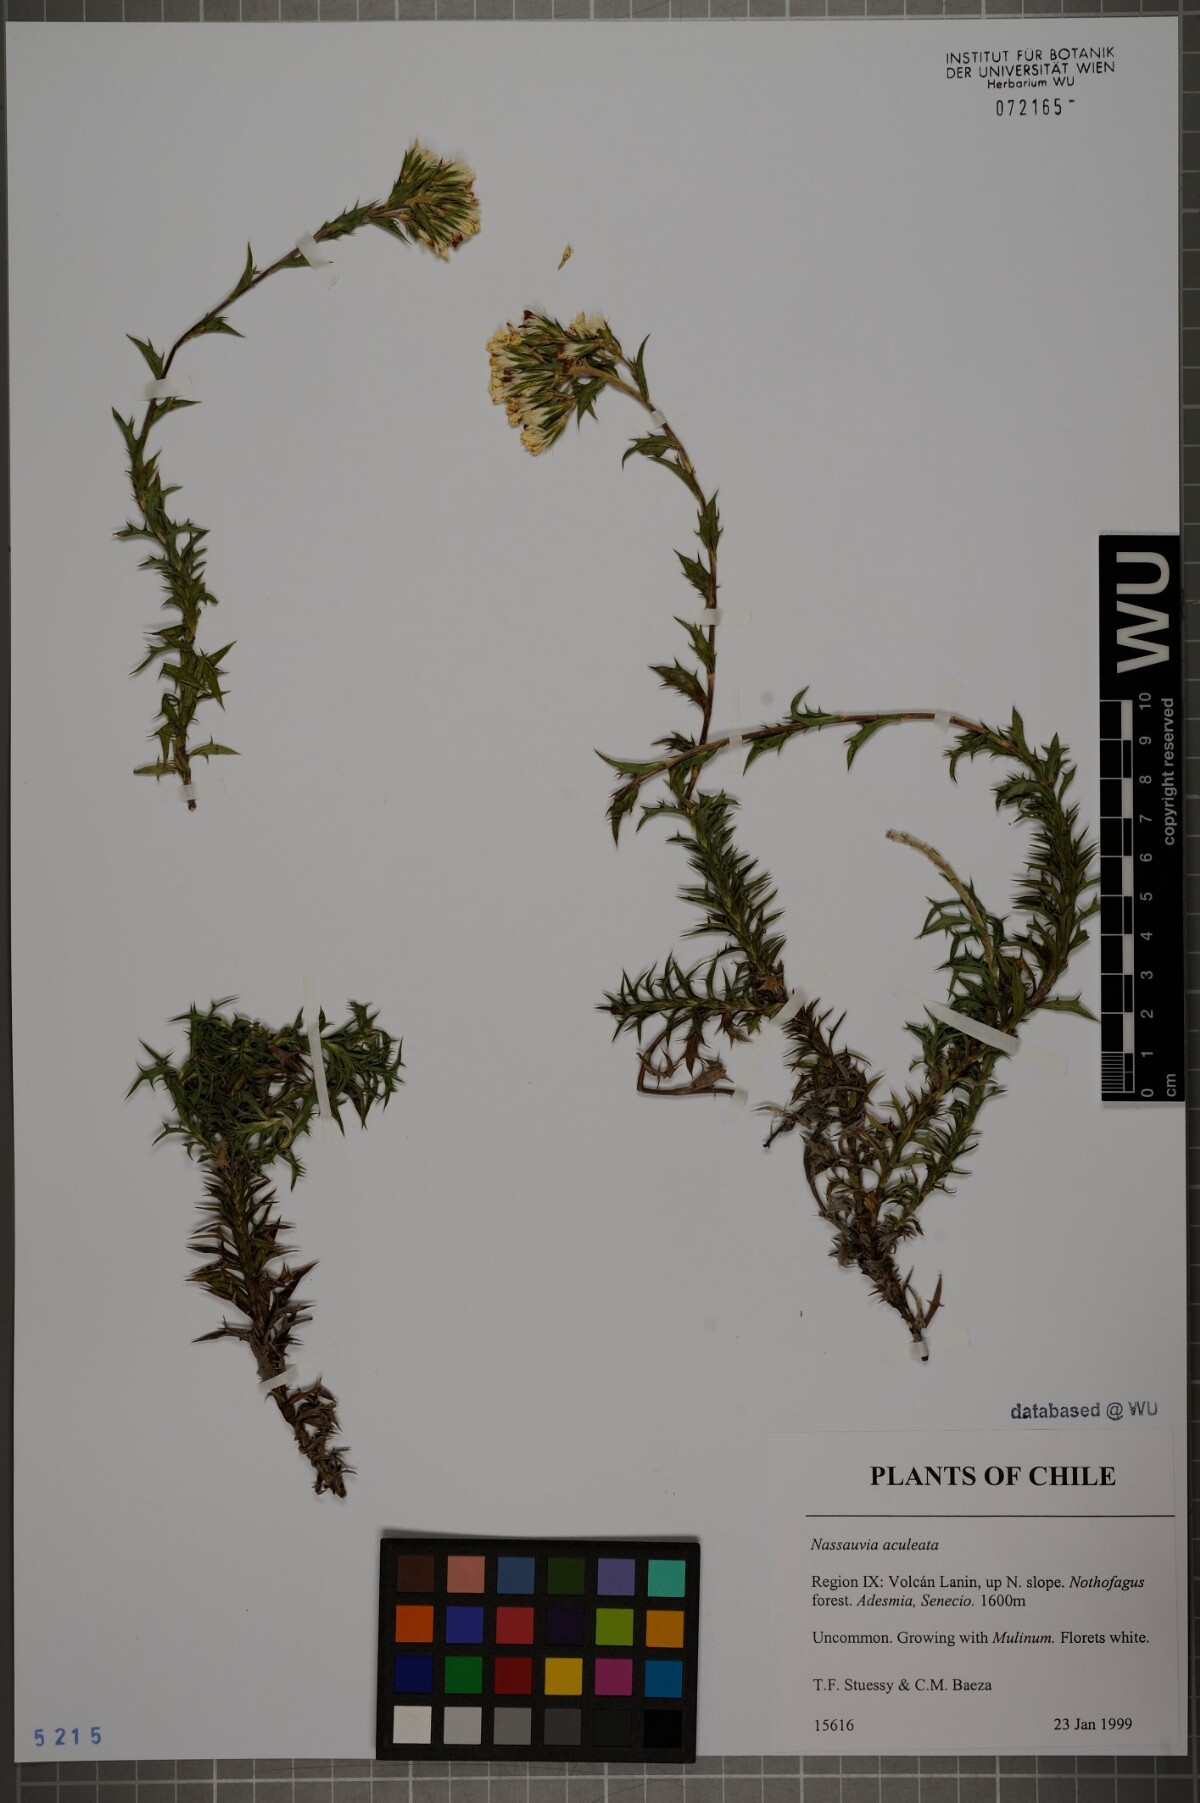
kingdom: Plantae
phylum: Tracheophyta
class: Magnoliopsida
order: Asterales
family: Asteraceae
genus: Nassauvia
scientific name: Nassauvia aculeata
